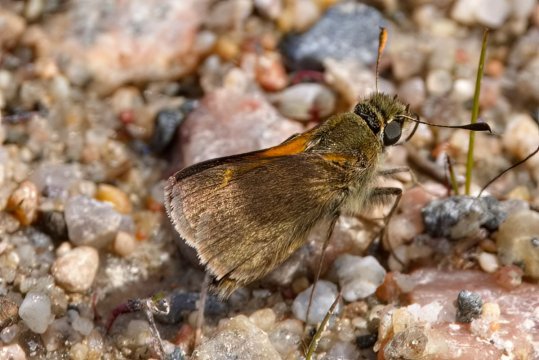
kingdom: Animalia
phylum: Arthropoda
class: Insecta
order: Lepidoptera
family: Hesperiidae
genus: Polites
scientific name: Polites themistocles
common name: Tawny-edged Skipper
